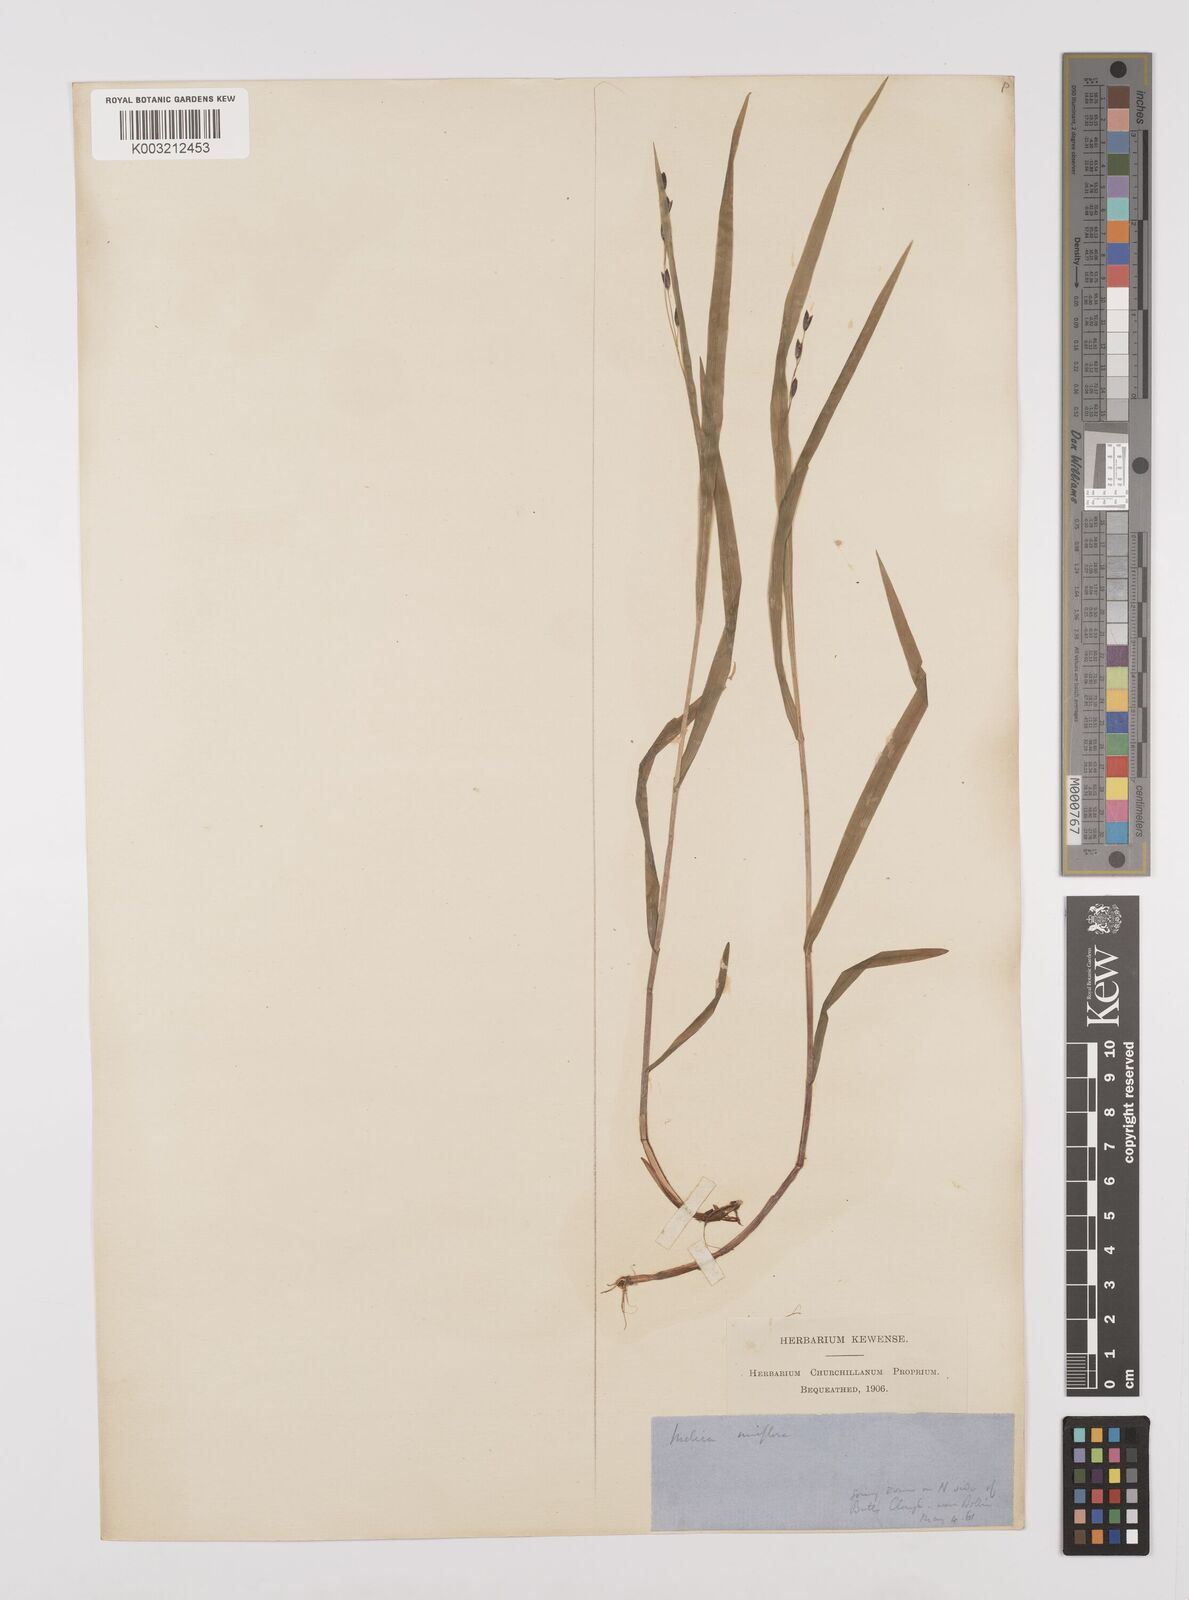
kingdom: Plantae
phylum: Tracheophyta
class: Liliopsida
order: Poales
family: Poaceae
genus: Melica
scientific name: Melica uniflora
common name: Wood melick
